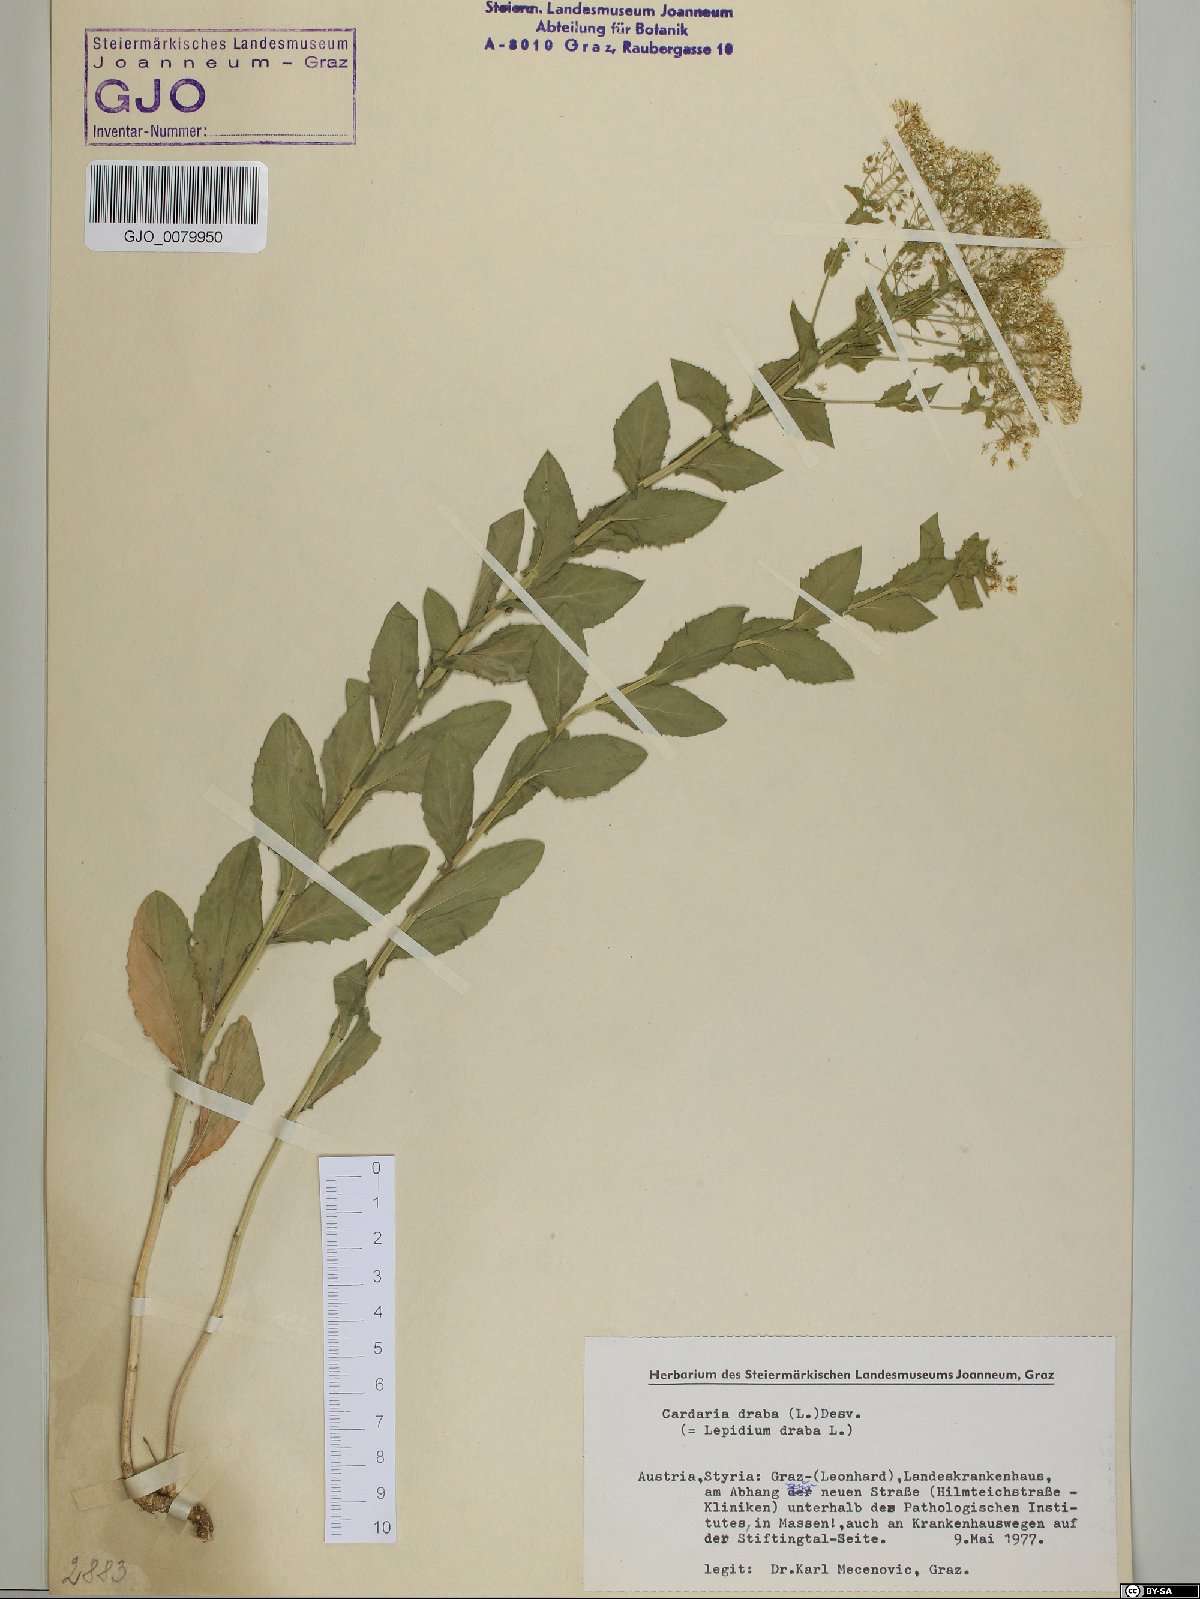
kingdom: Plantae
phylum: Tracheophyta
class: Magnoliopsida
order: Brassicales
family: Brassicaceae
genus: Lepidium
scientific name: Lepidium draba
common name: Hoary cress
